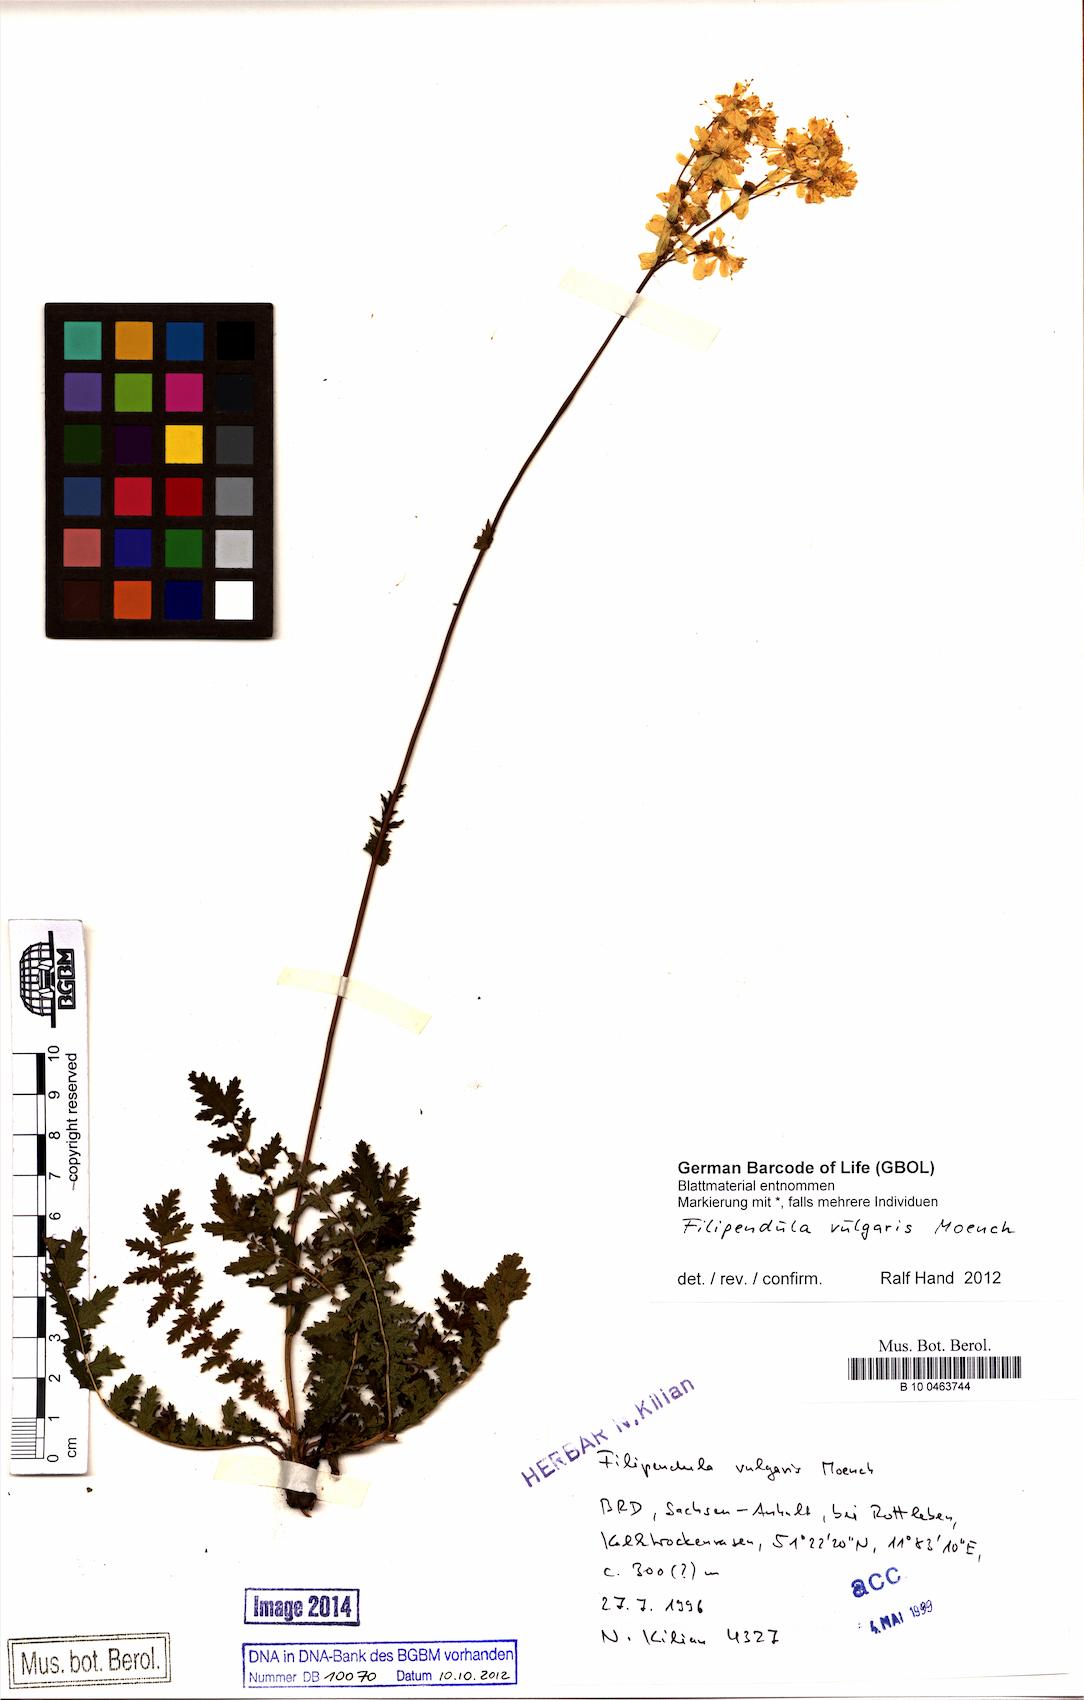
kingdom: Plantae
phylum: Tracheophyta
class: Magnoliopsida
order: Rosales
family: Rosaceae
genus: Filipendula
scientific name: Filipendula vulgaris
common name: Dropwort
